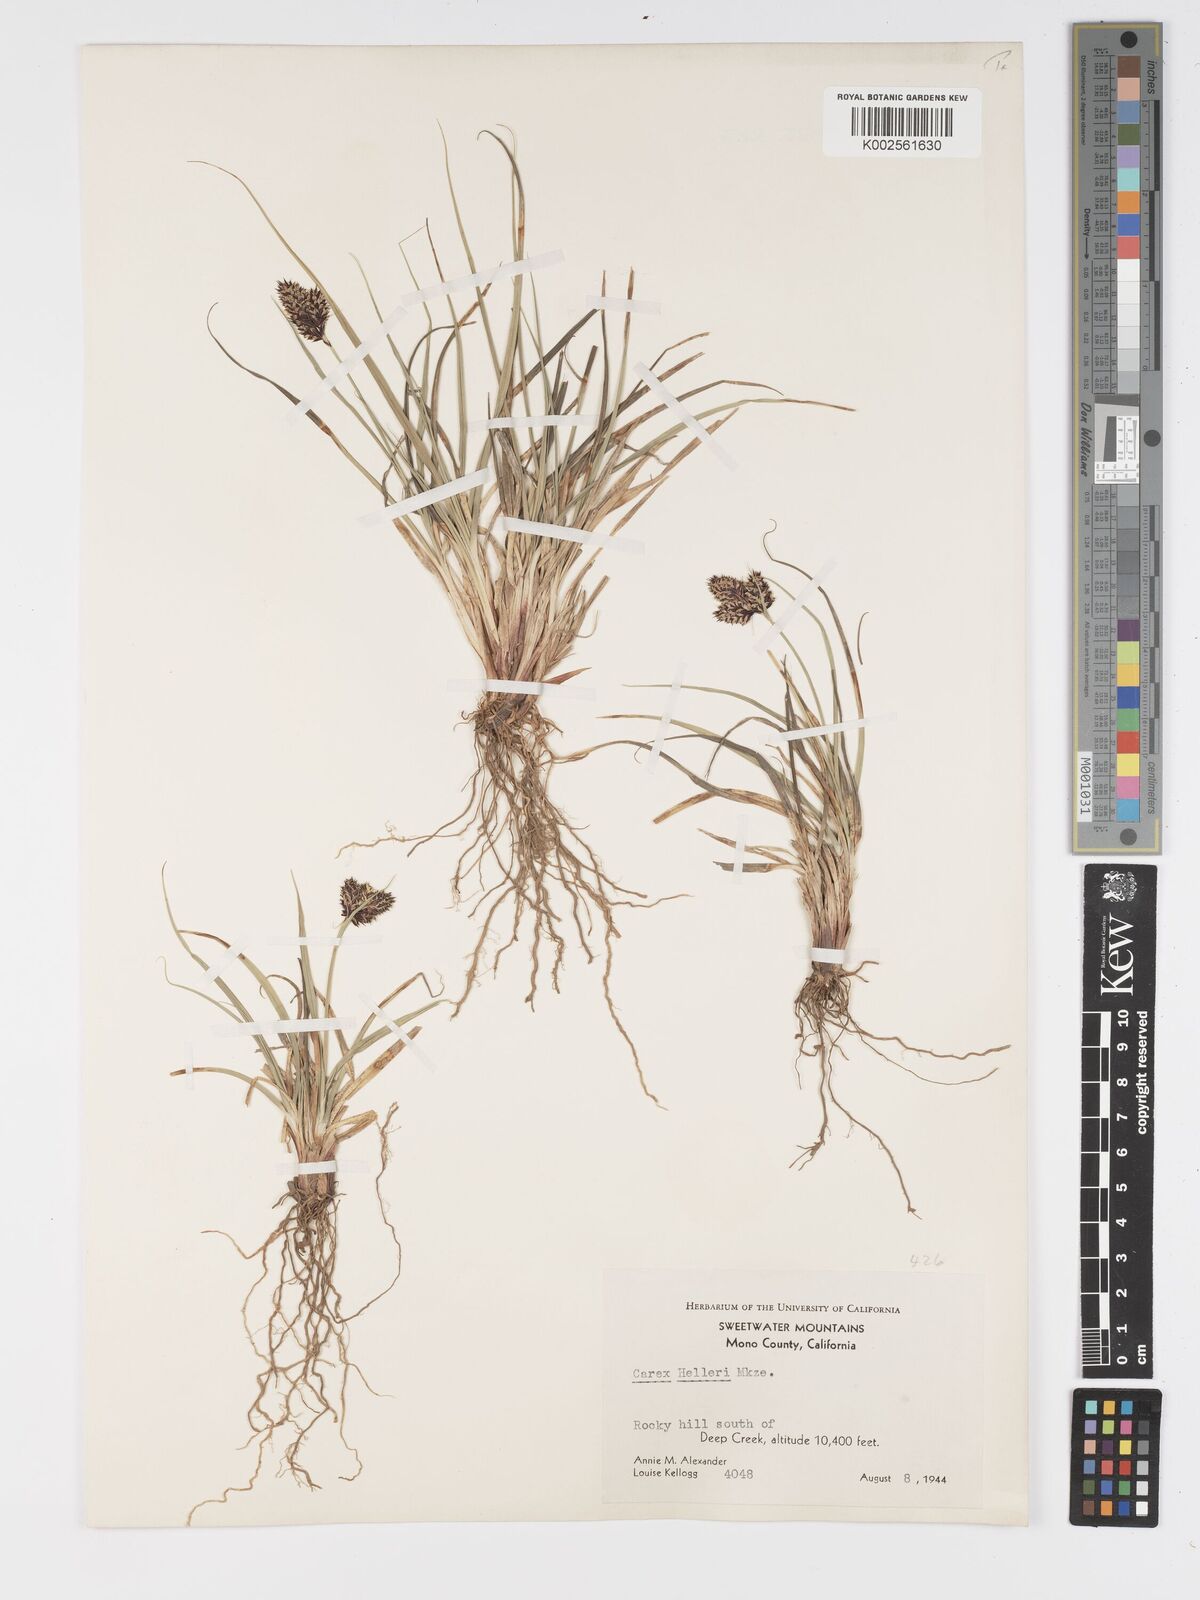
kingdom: Plantae
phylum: Tracheophyta
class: Liliopsida
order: Poales
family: Cyperaceae
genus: Carex
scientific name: Carex helleri
